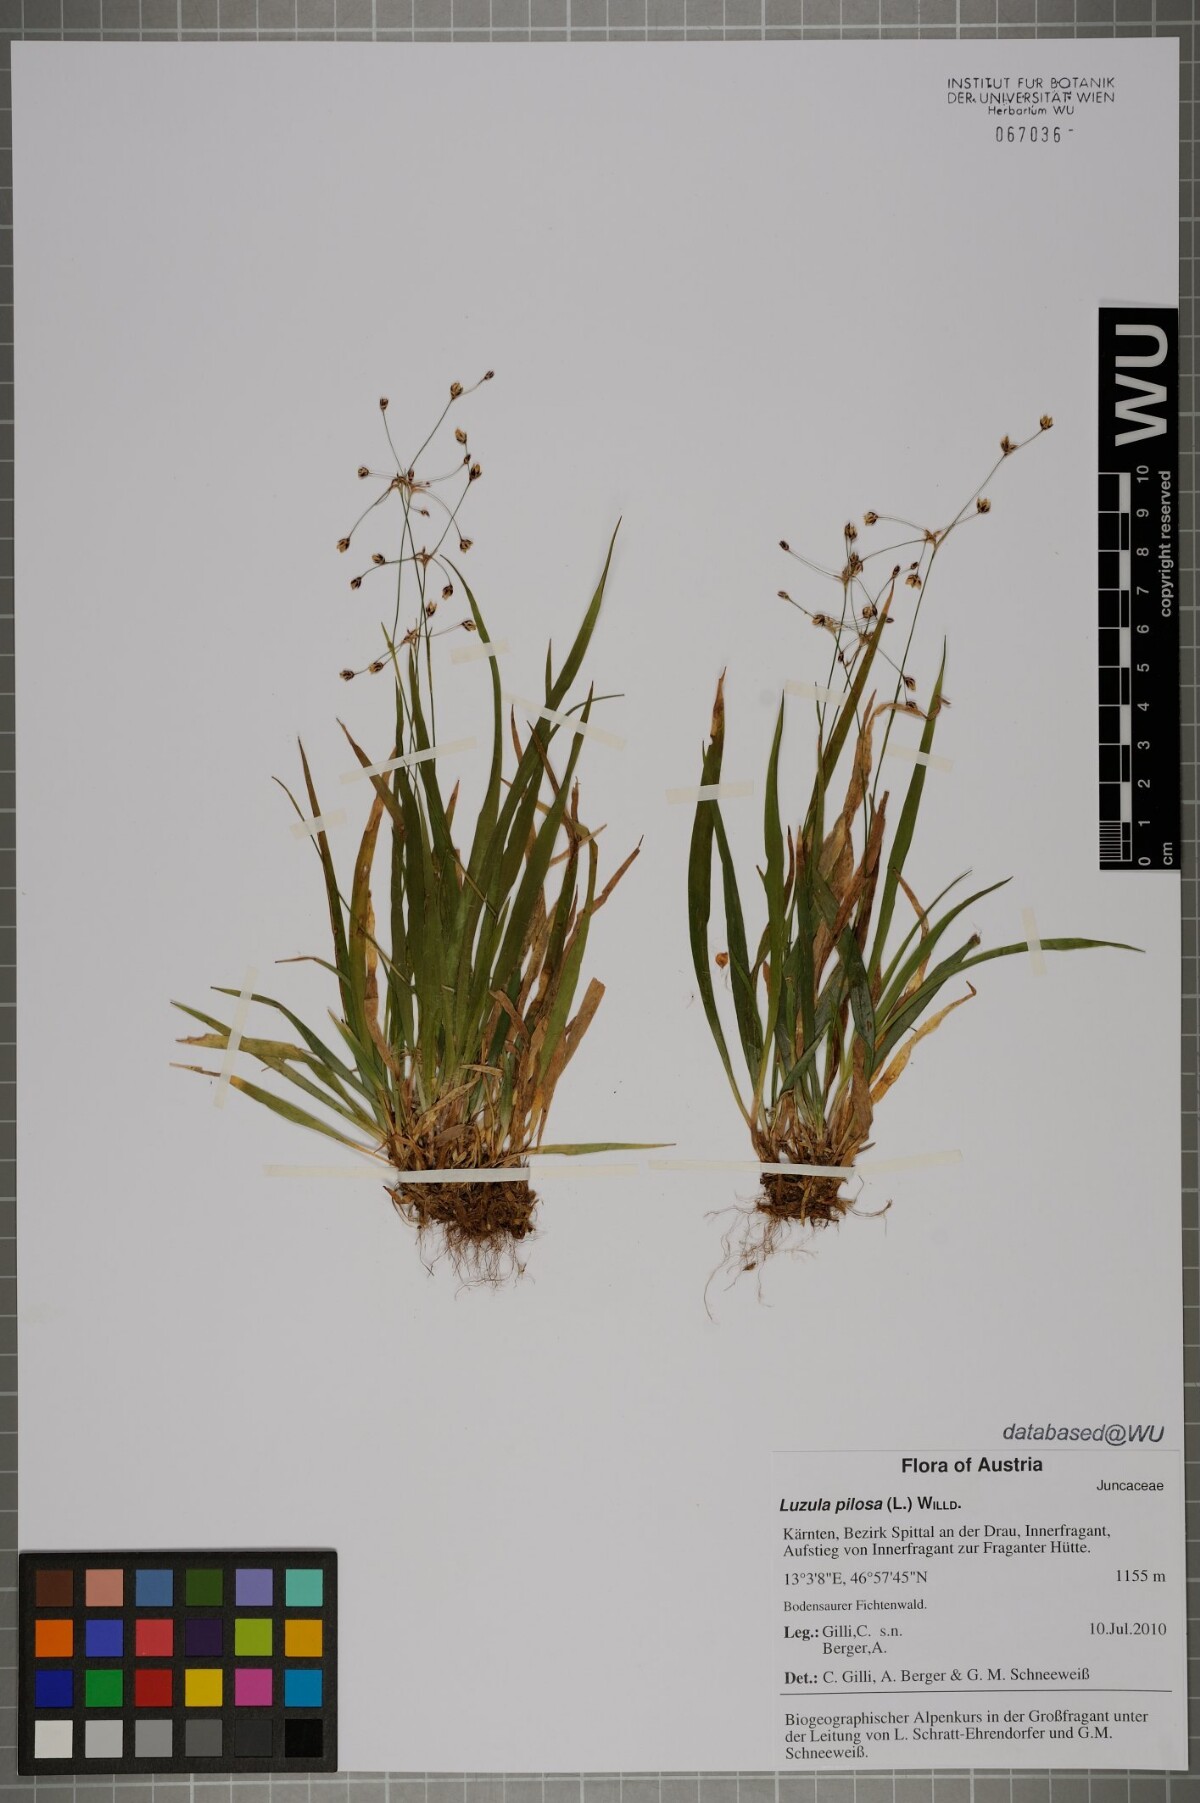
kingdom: Plantae
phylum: Tracheophyta
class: Liliopsida
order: Poales
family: Juncaceae
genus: Luzula
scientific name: Luzula pilosa
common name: Hairy wood-rush
